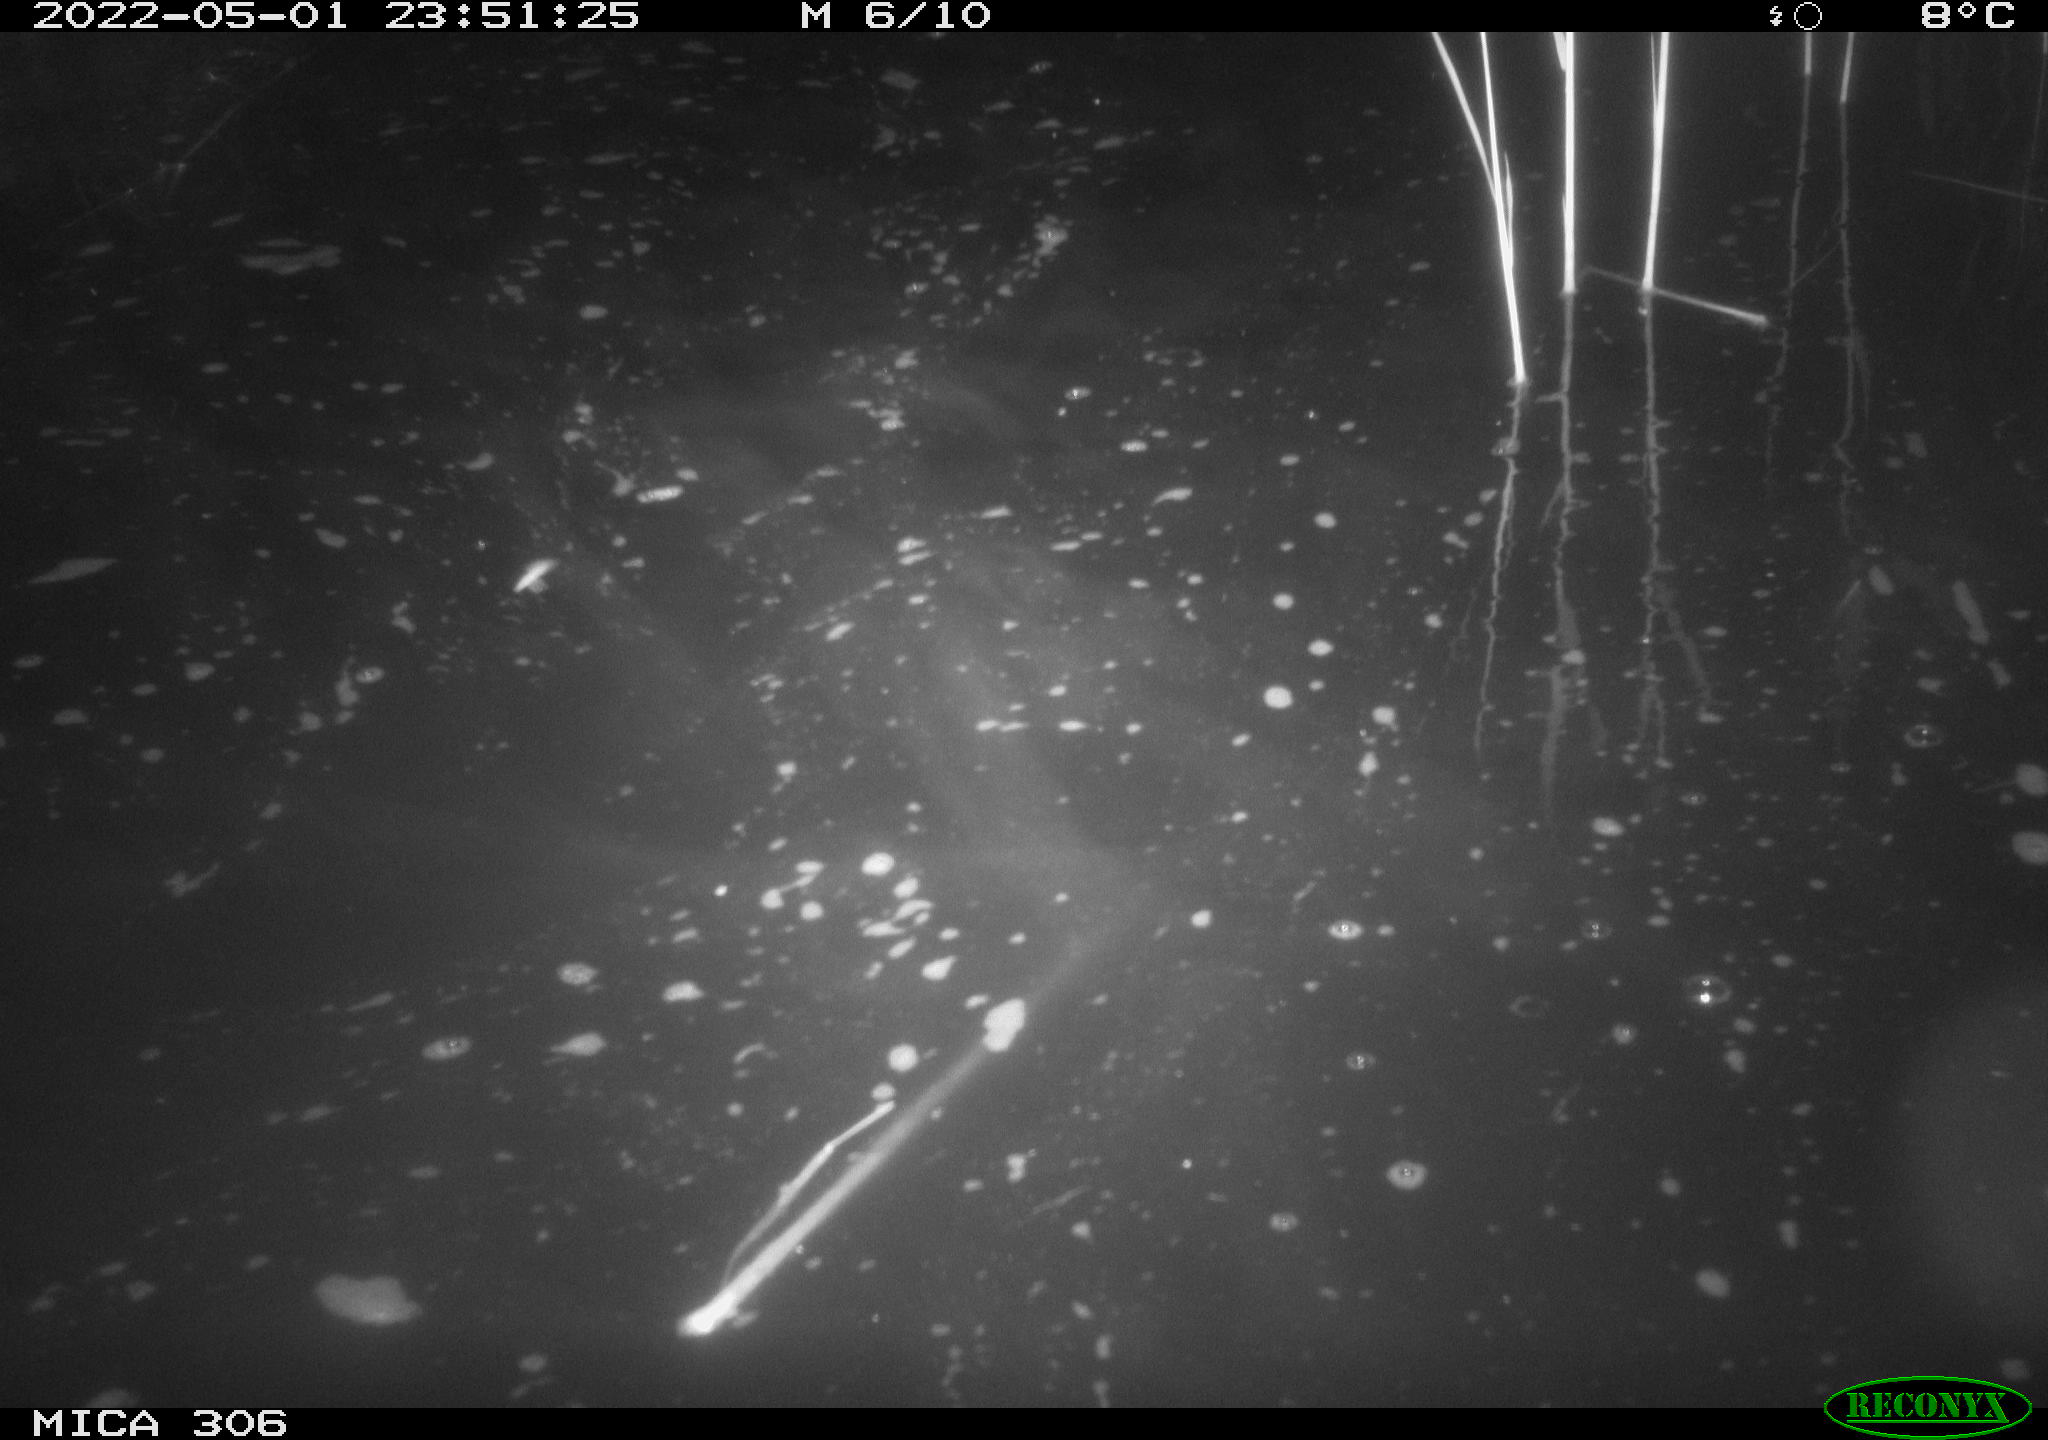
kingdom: Animalia
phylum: Chordata
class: Mammalia
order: Rodentia
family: Cricetidae
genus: Ondatra
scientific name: Ondatra zibethicus
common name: Muskrat
